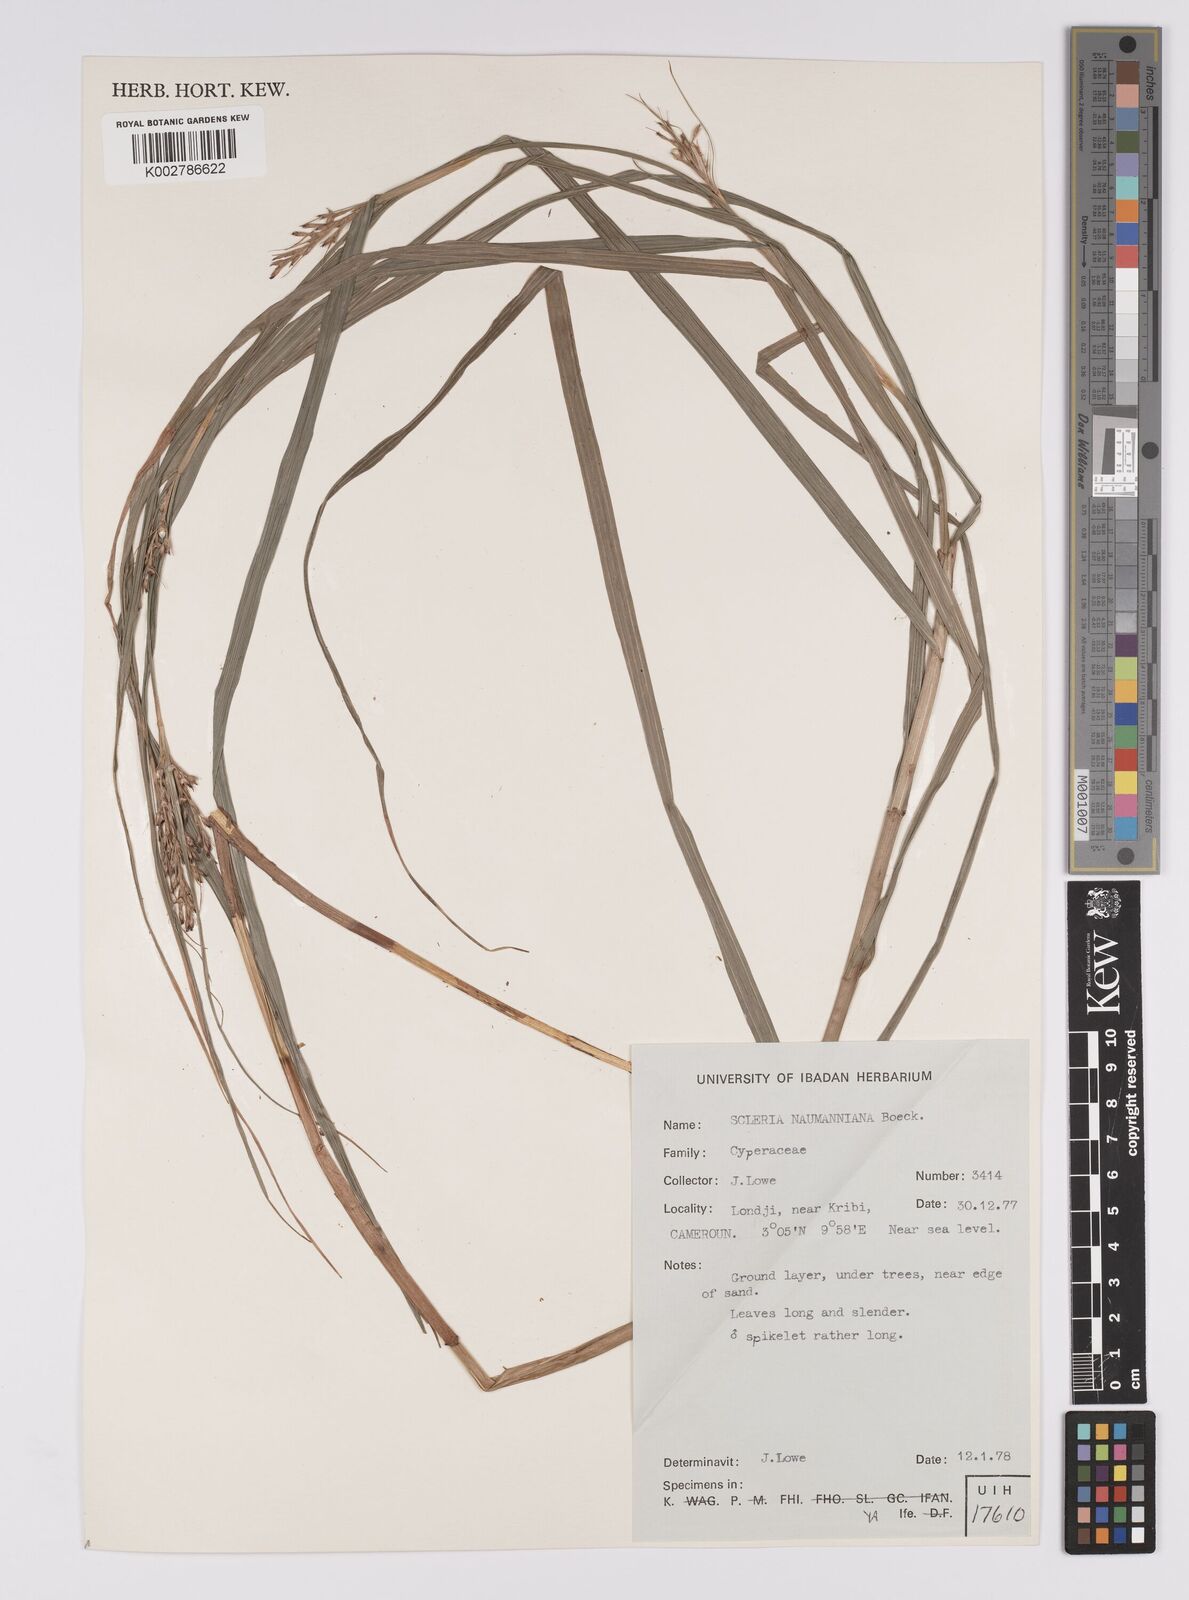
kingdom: Plantae
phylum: Tracheophyta
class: Liliopsida
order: Poales
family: Cyperaceae
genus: Scleria
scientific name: Scleria naumanniana
